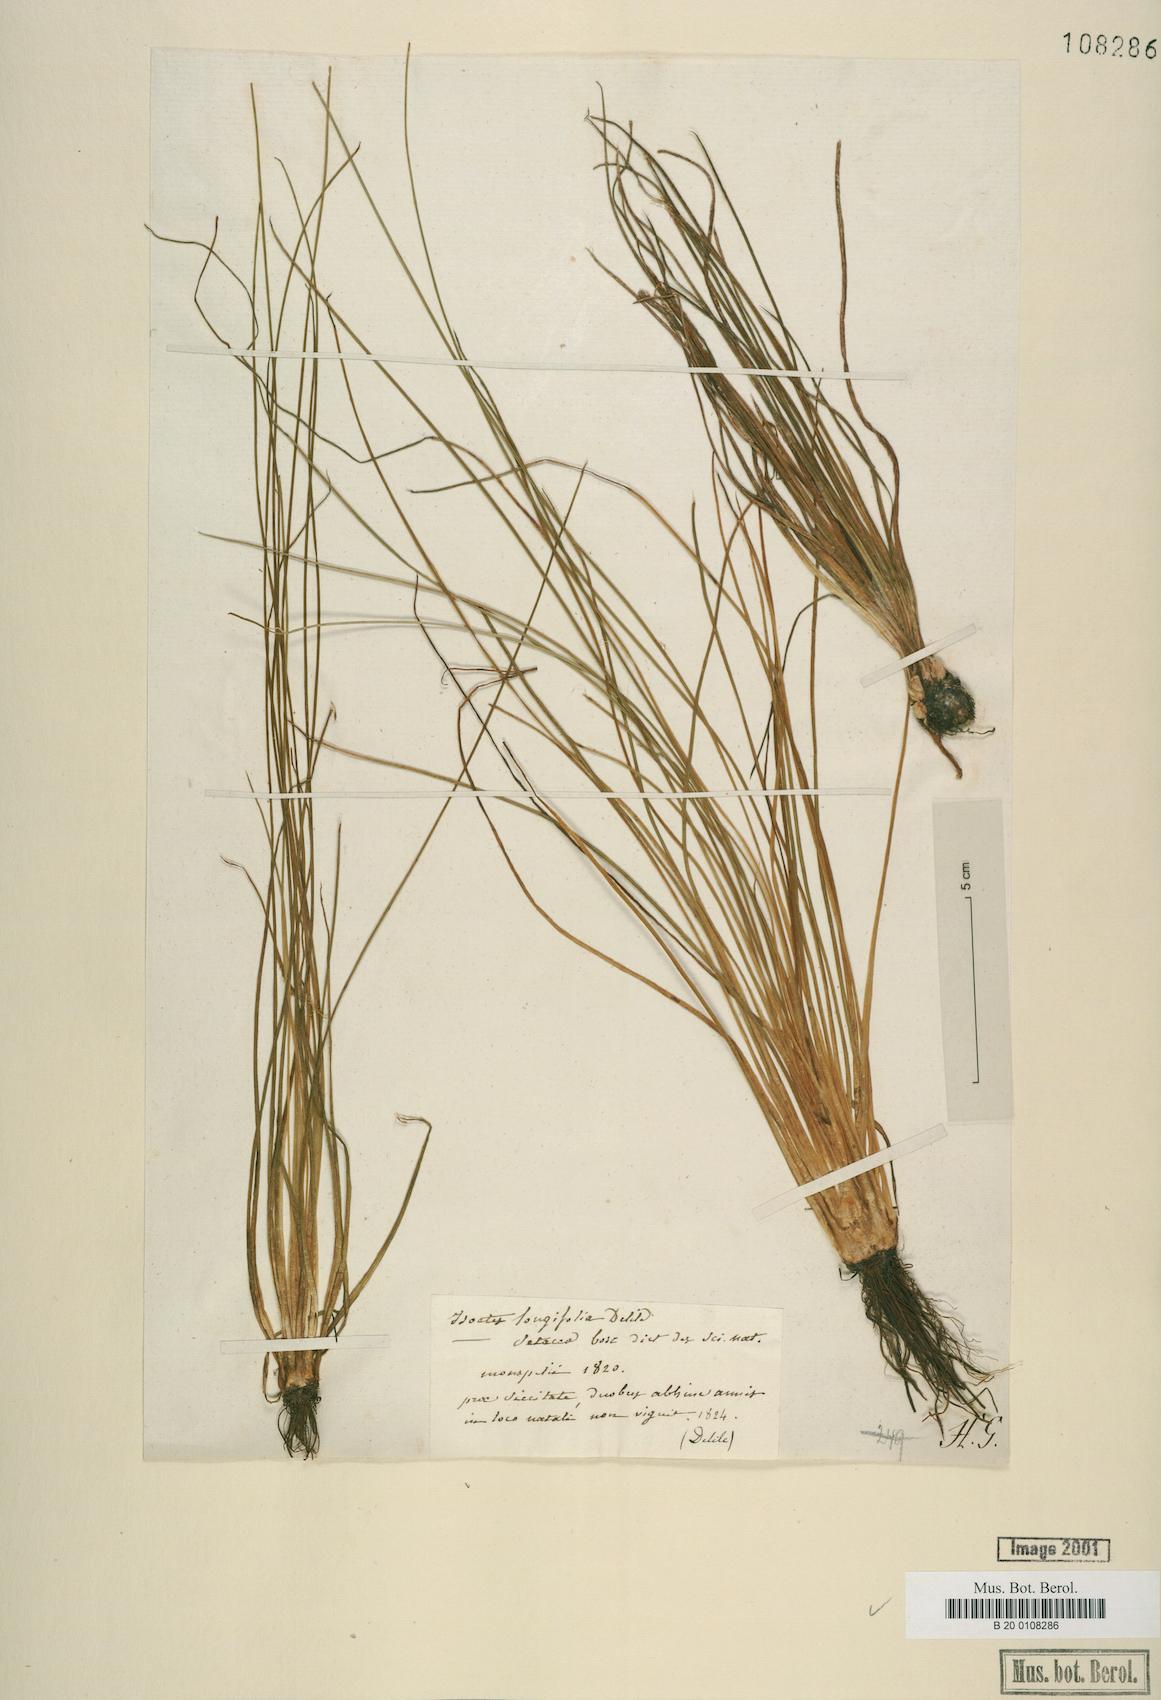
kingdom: Plantae
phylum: Tracheophyta
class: Lycopodiopsida
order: Isoetales
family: Isoetaceae
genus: Isoetes
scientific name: Isoetes lacustris
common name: Common quillwort
